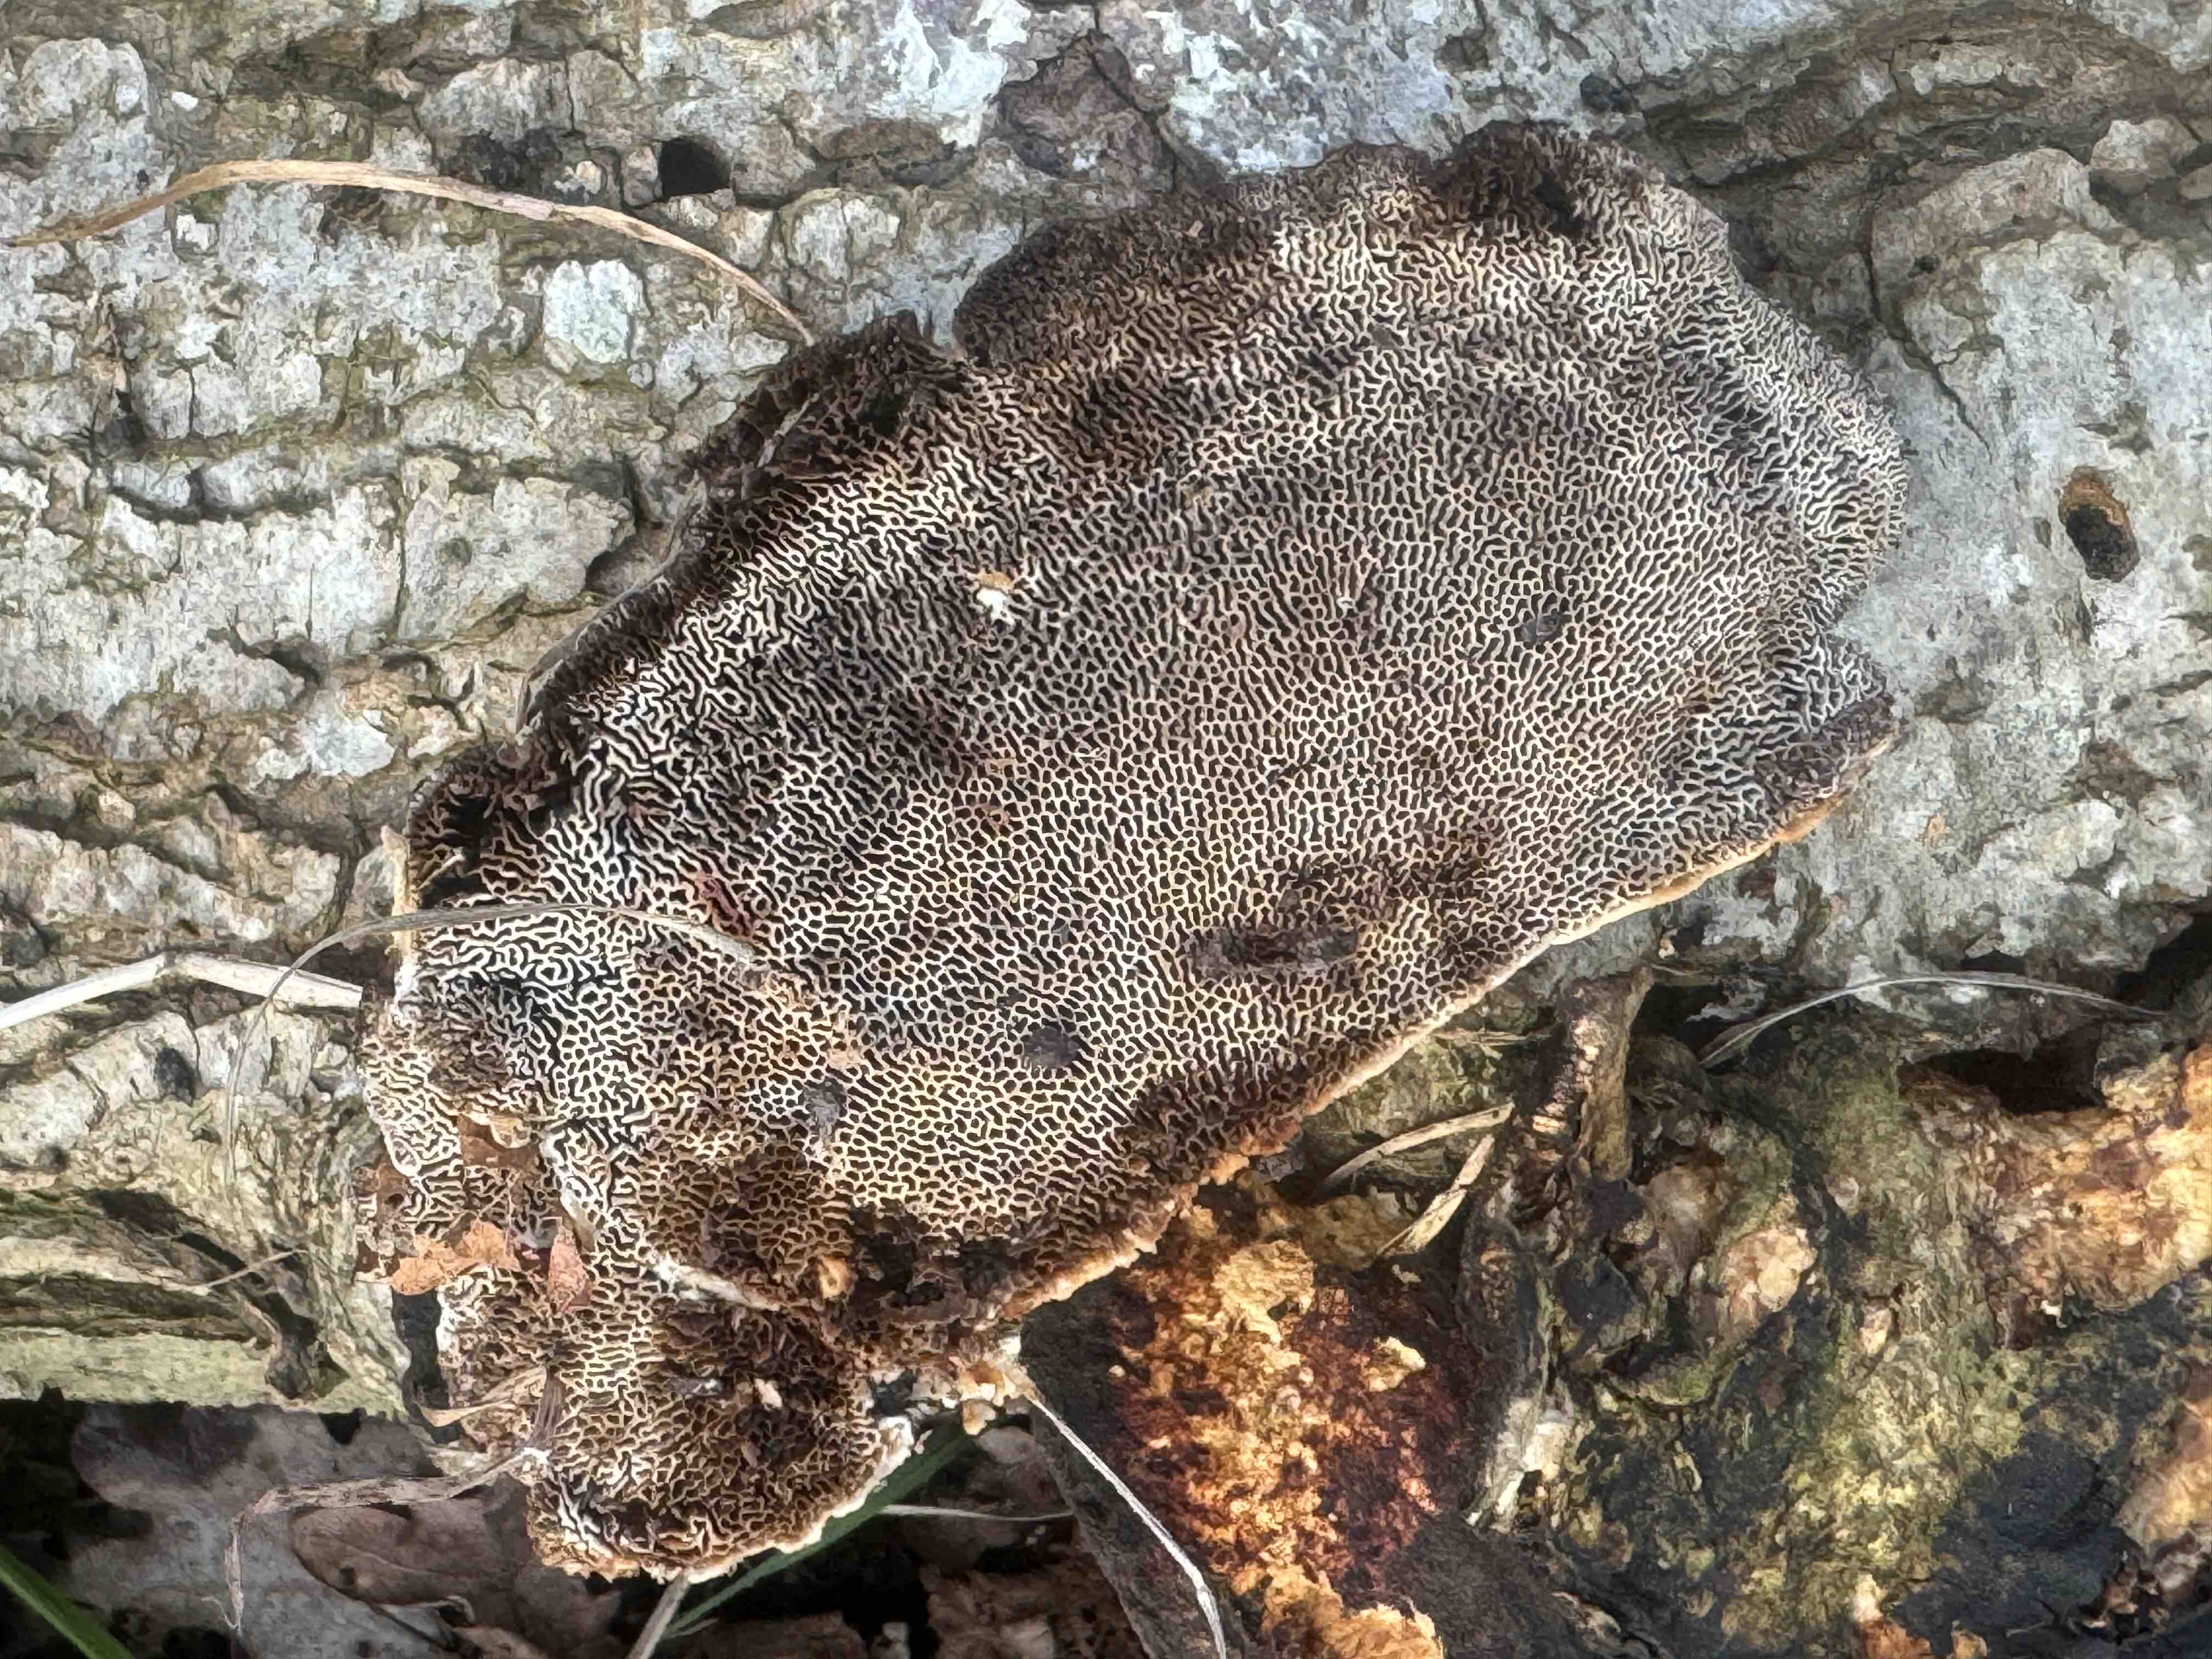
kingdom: Fungi
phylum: Basidiomycota
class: Agaricomycetes
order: Polyporales
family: Polyporaceae
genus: Daedaleopsis
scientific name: Daedaleopsis confragosa
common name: rødmende læderporesvamp
